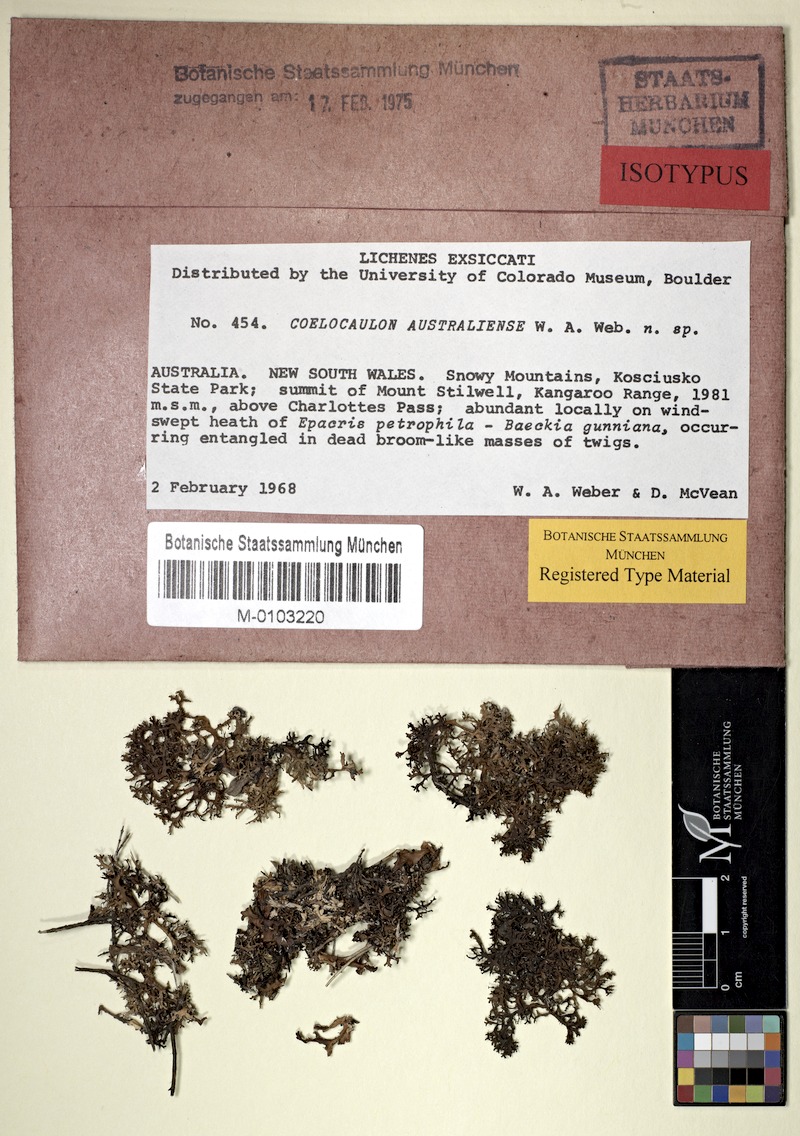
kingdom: Fungi
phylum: Ascomycota
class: Lecanoromycetes
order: Lecanorales
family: Parmeliaceae
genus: Cetraria
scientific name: Cetraria australiensis
